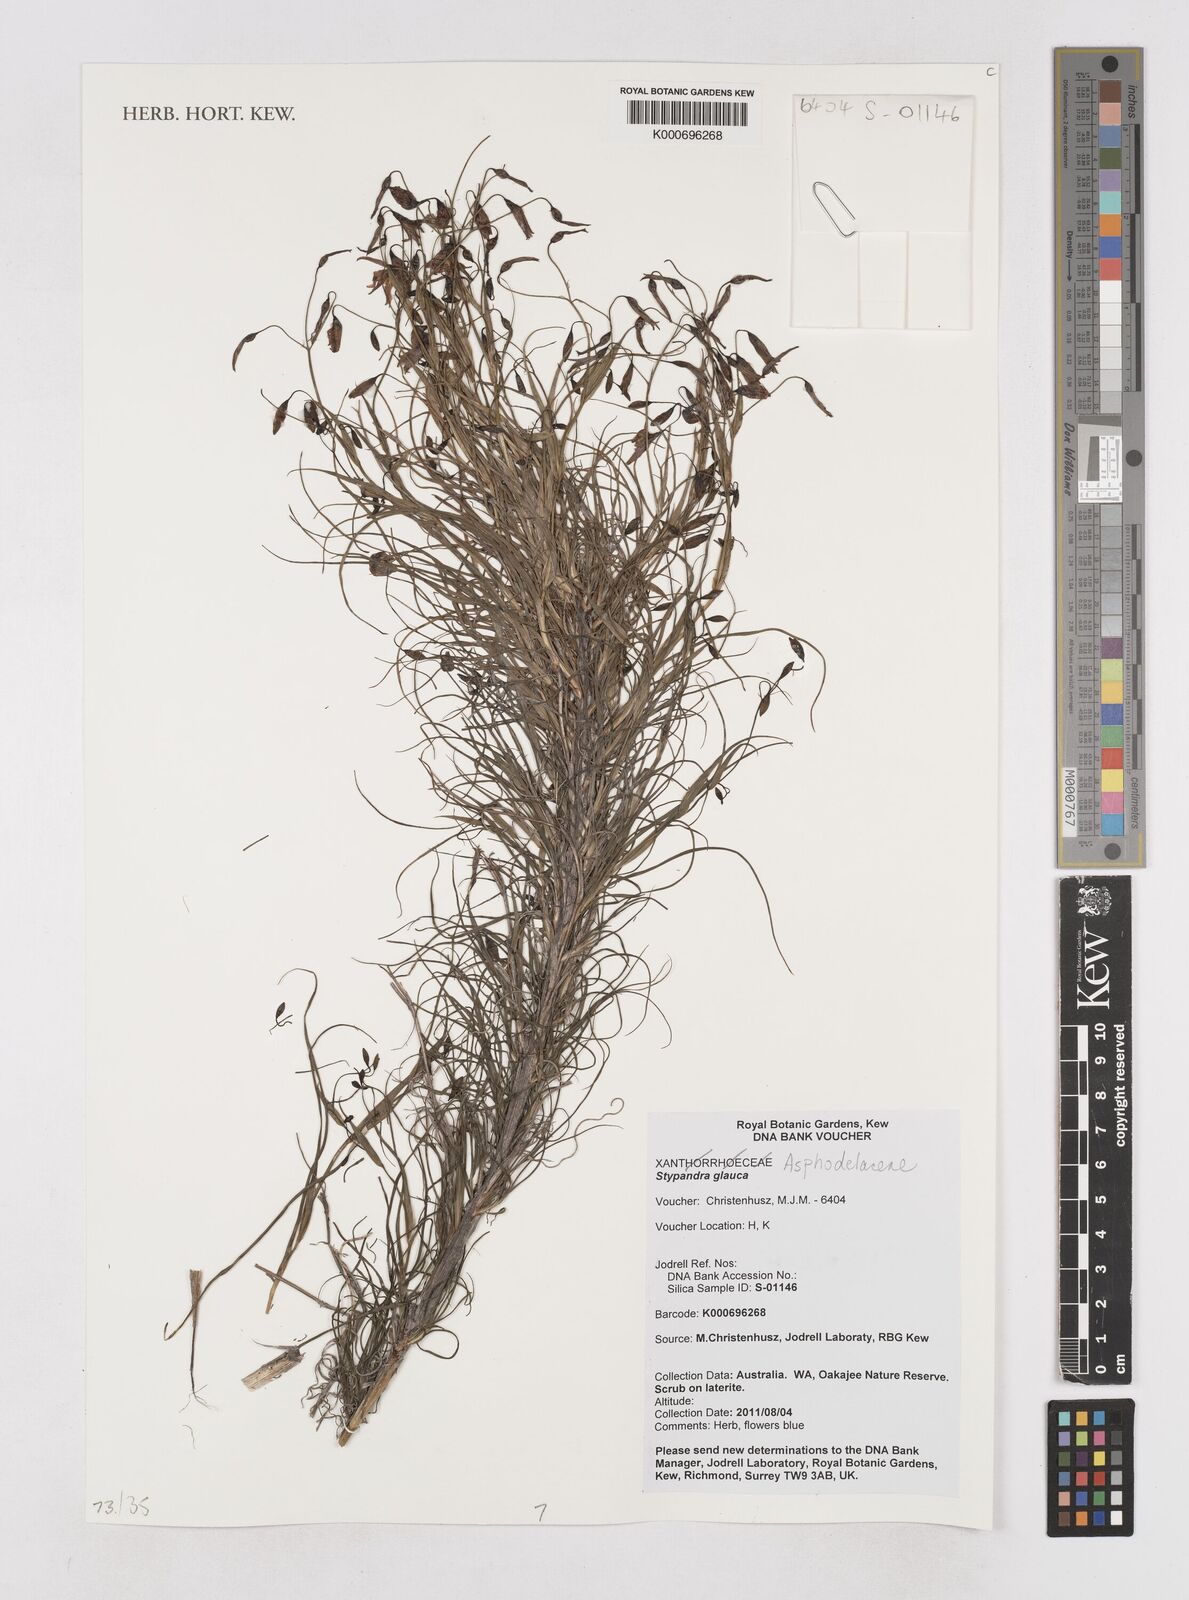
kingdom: Plantae
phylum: Tracheophyta
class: Liliopsida
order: Asparagales
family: Asphodelaceae
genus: Stypandra
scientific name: Stypandra glauca
